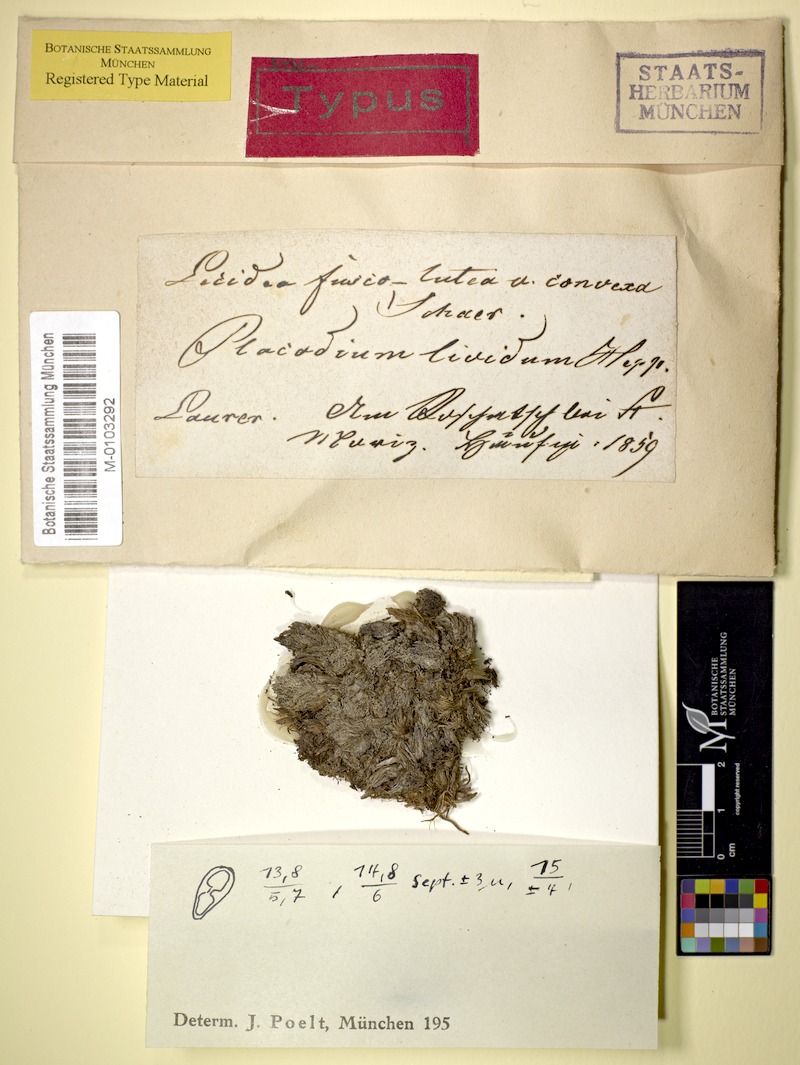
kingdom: Fungi
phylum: Ascomycota
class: Lecanoromycetes
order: Teloschistales
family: Teloschistaceae
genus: Caloplaca
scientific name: Caloplaca livida
